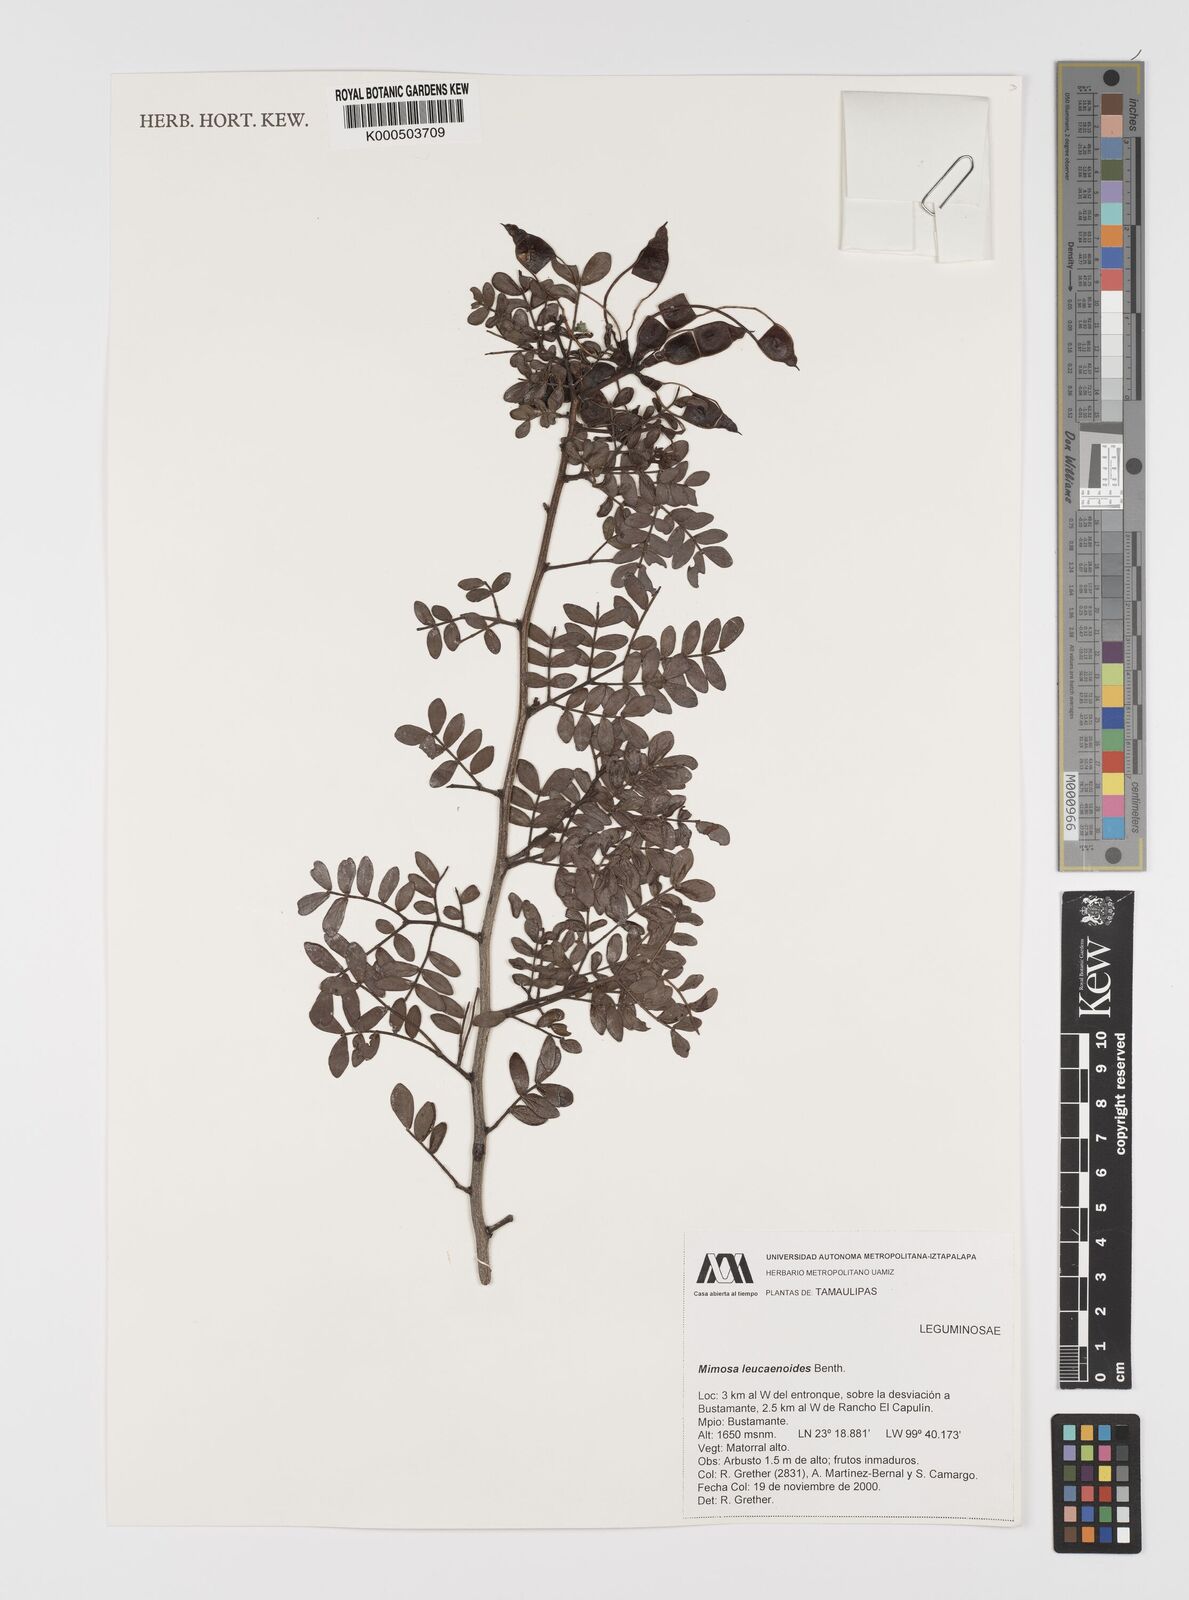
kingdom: Plantae
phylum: Tracheophyta
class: Magnoliopsida
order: Fabales
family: Fabaceae
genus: Mimosa
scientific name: Mimosa leucaenoides
